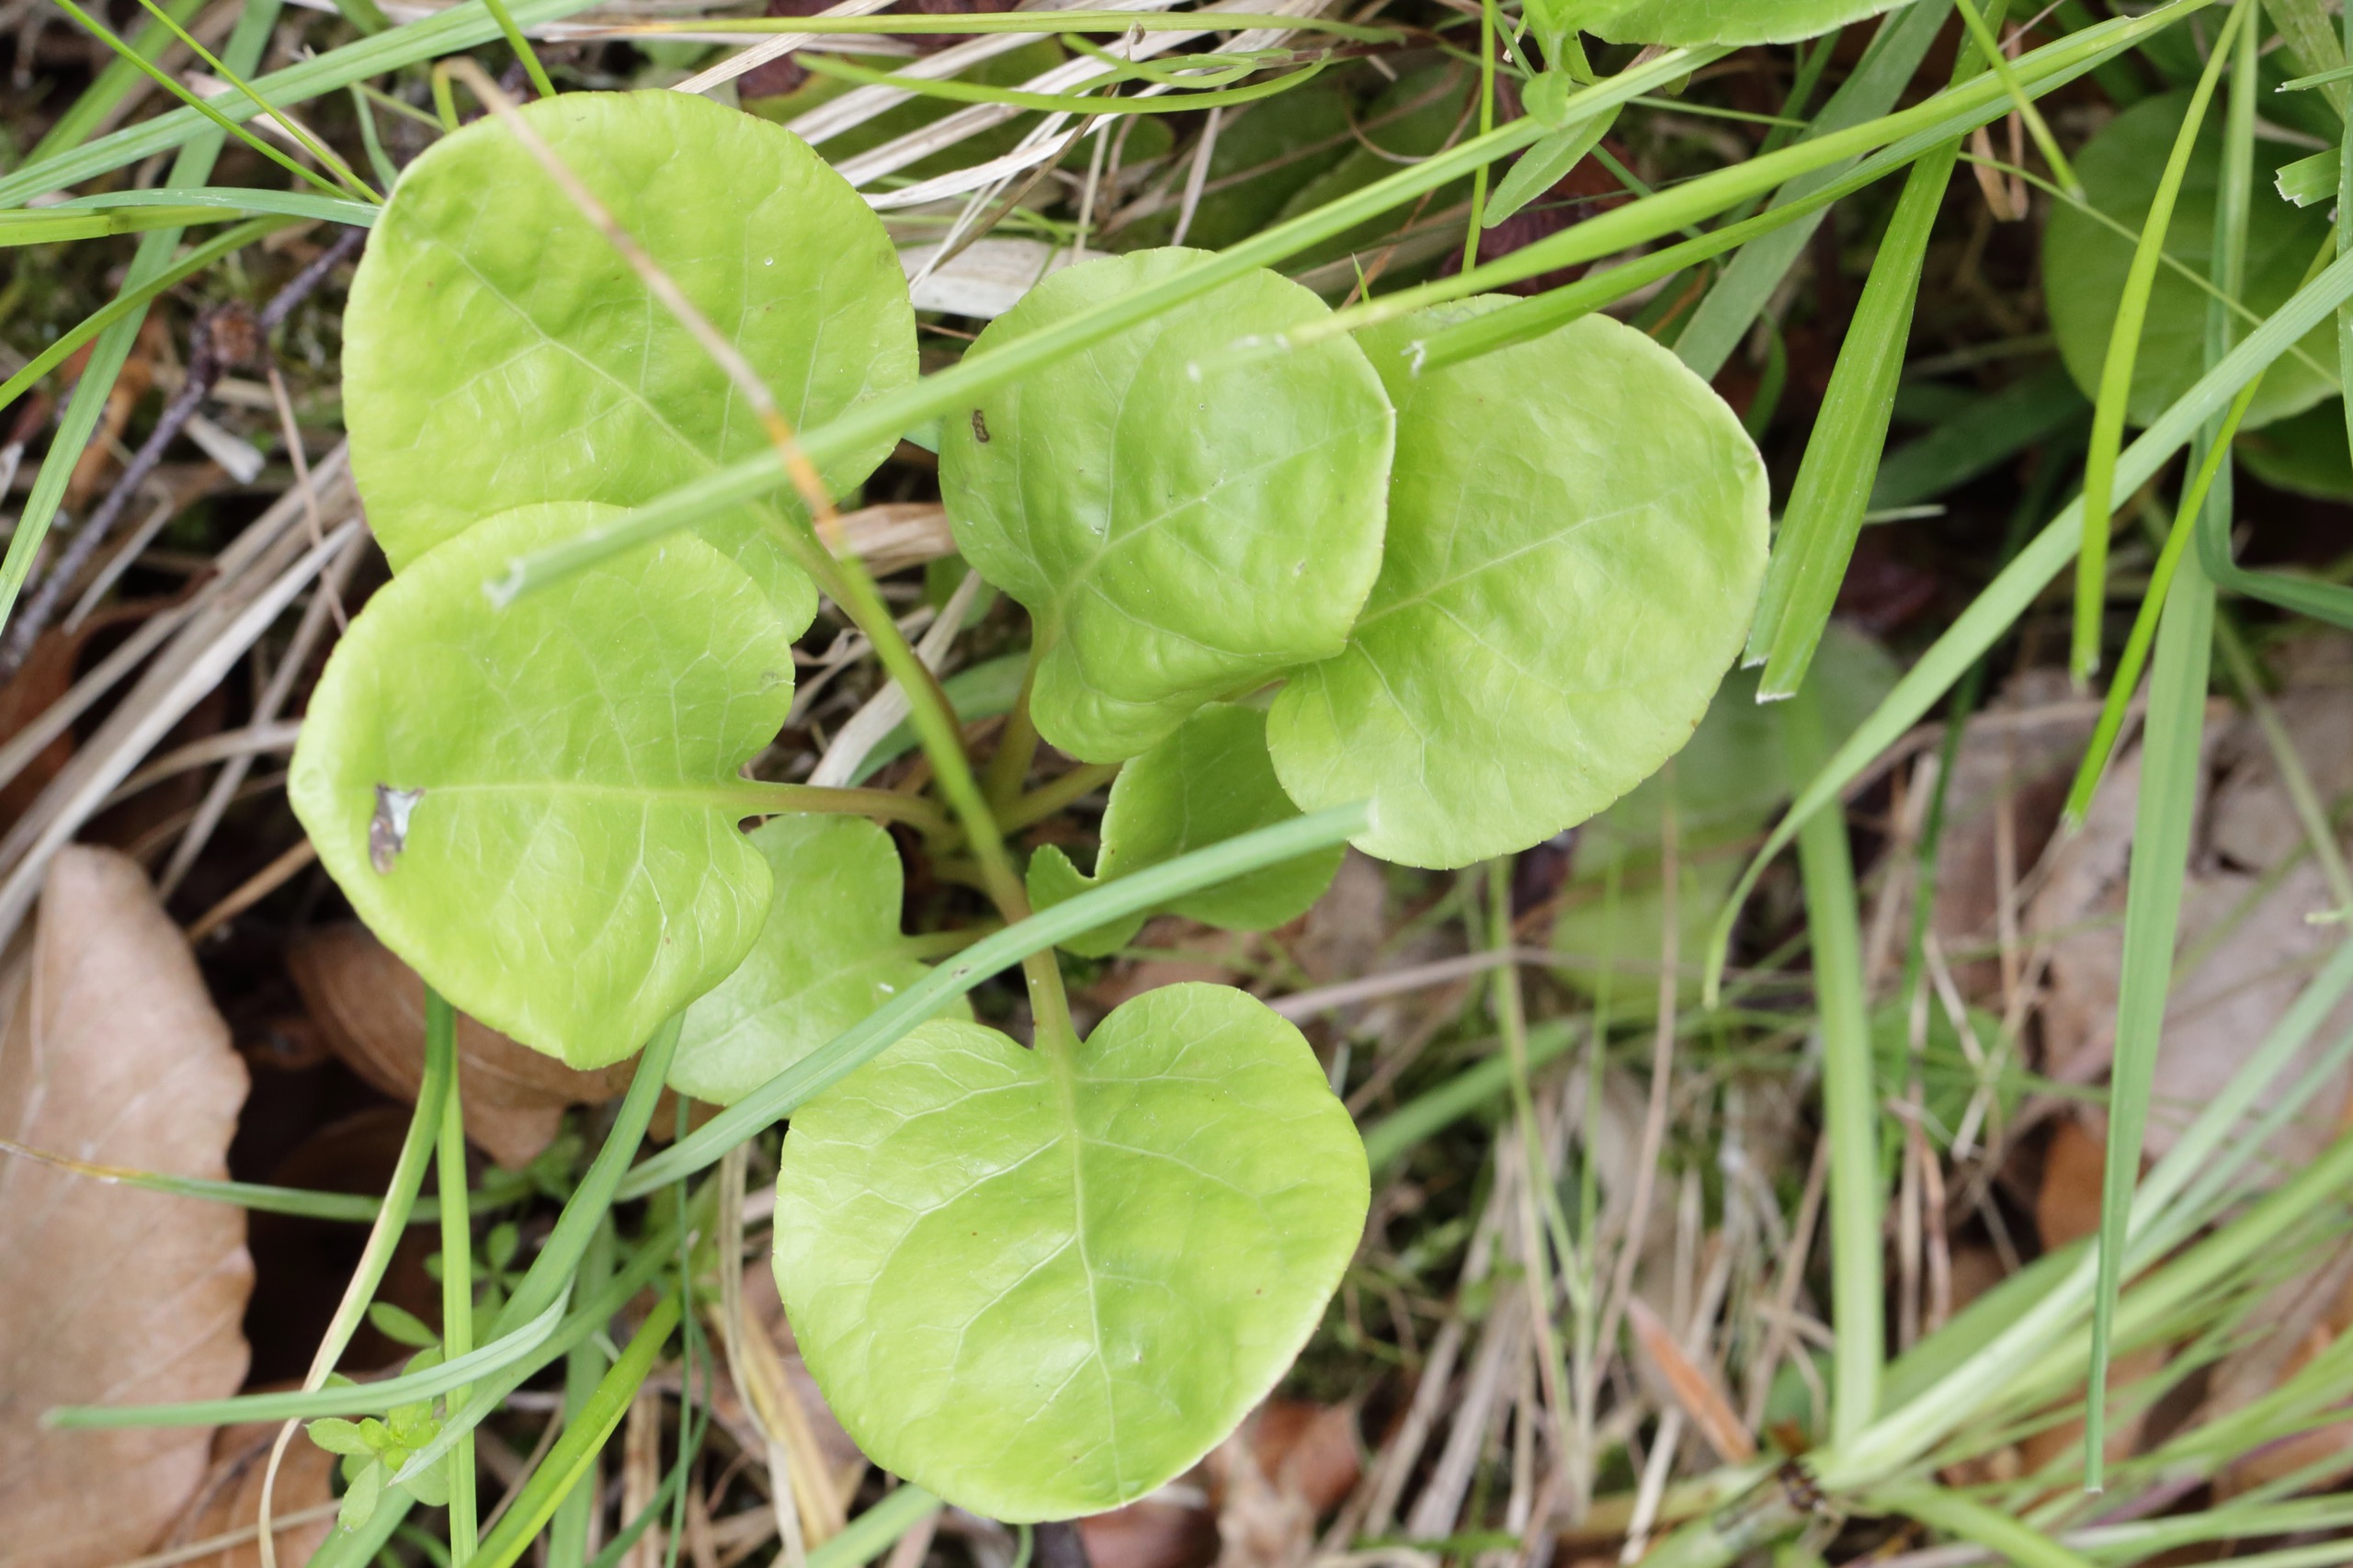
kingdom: Plantae
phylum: Tracheophyta
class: Magnoliopsida
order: Ericales
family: Ericaceae
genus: Pyrola
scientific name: Pyrola rotundifolia
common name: Mose-vintergrøn
